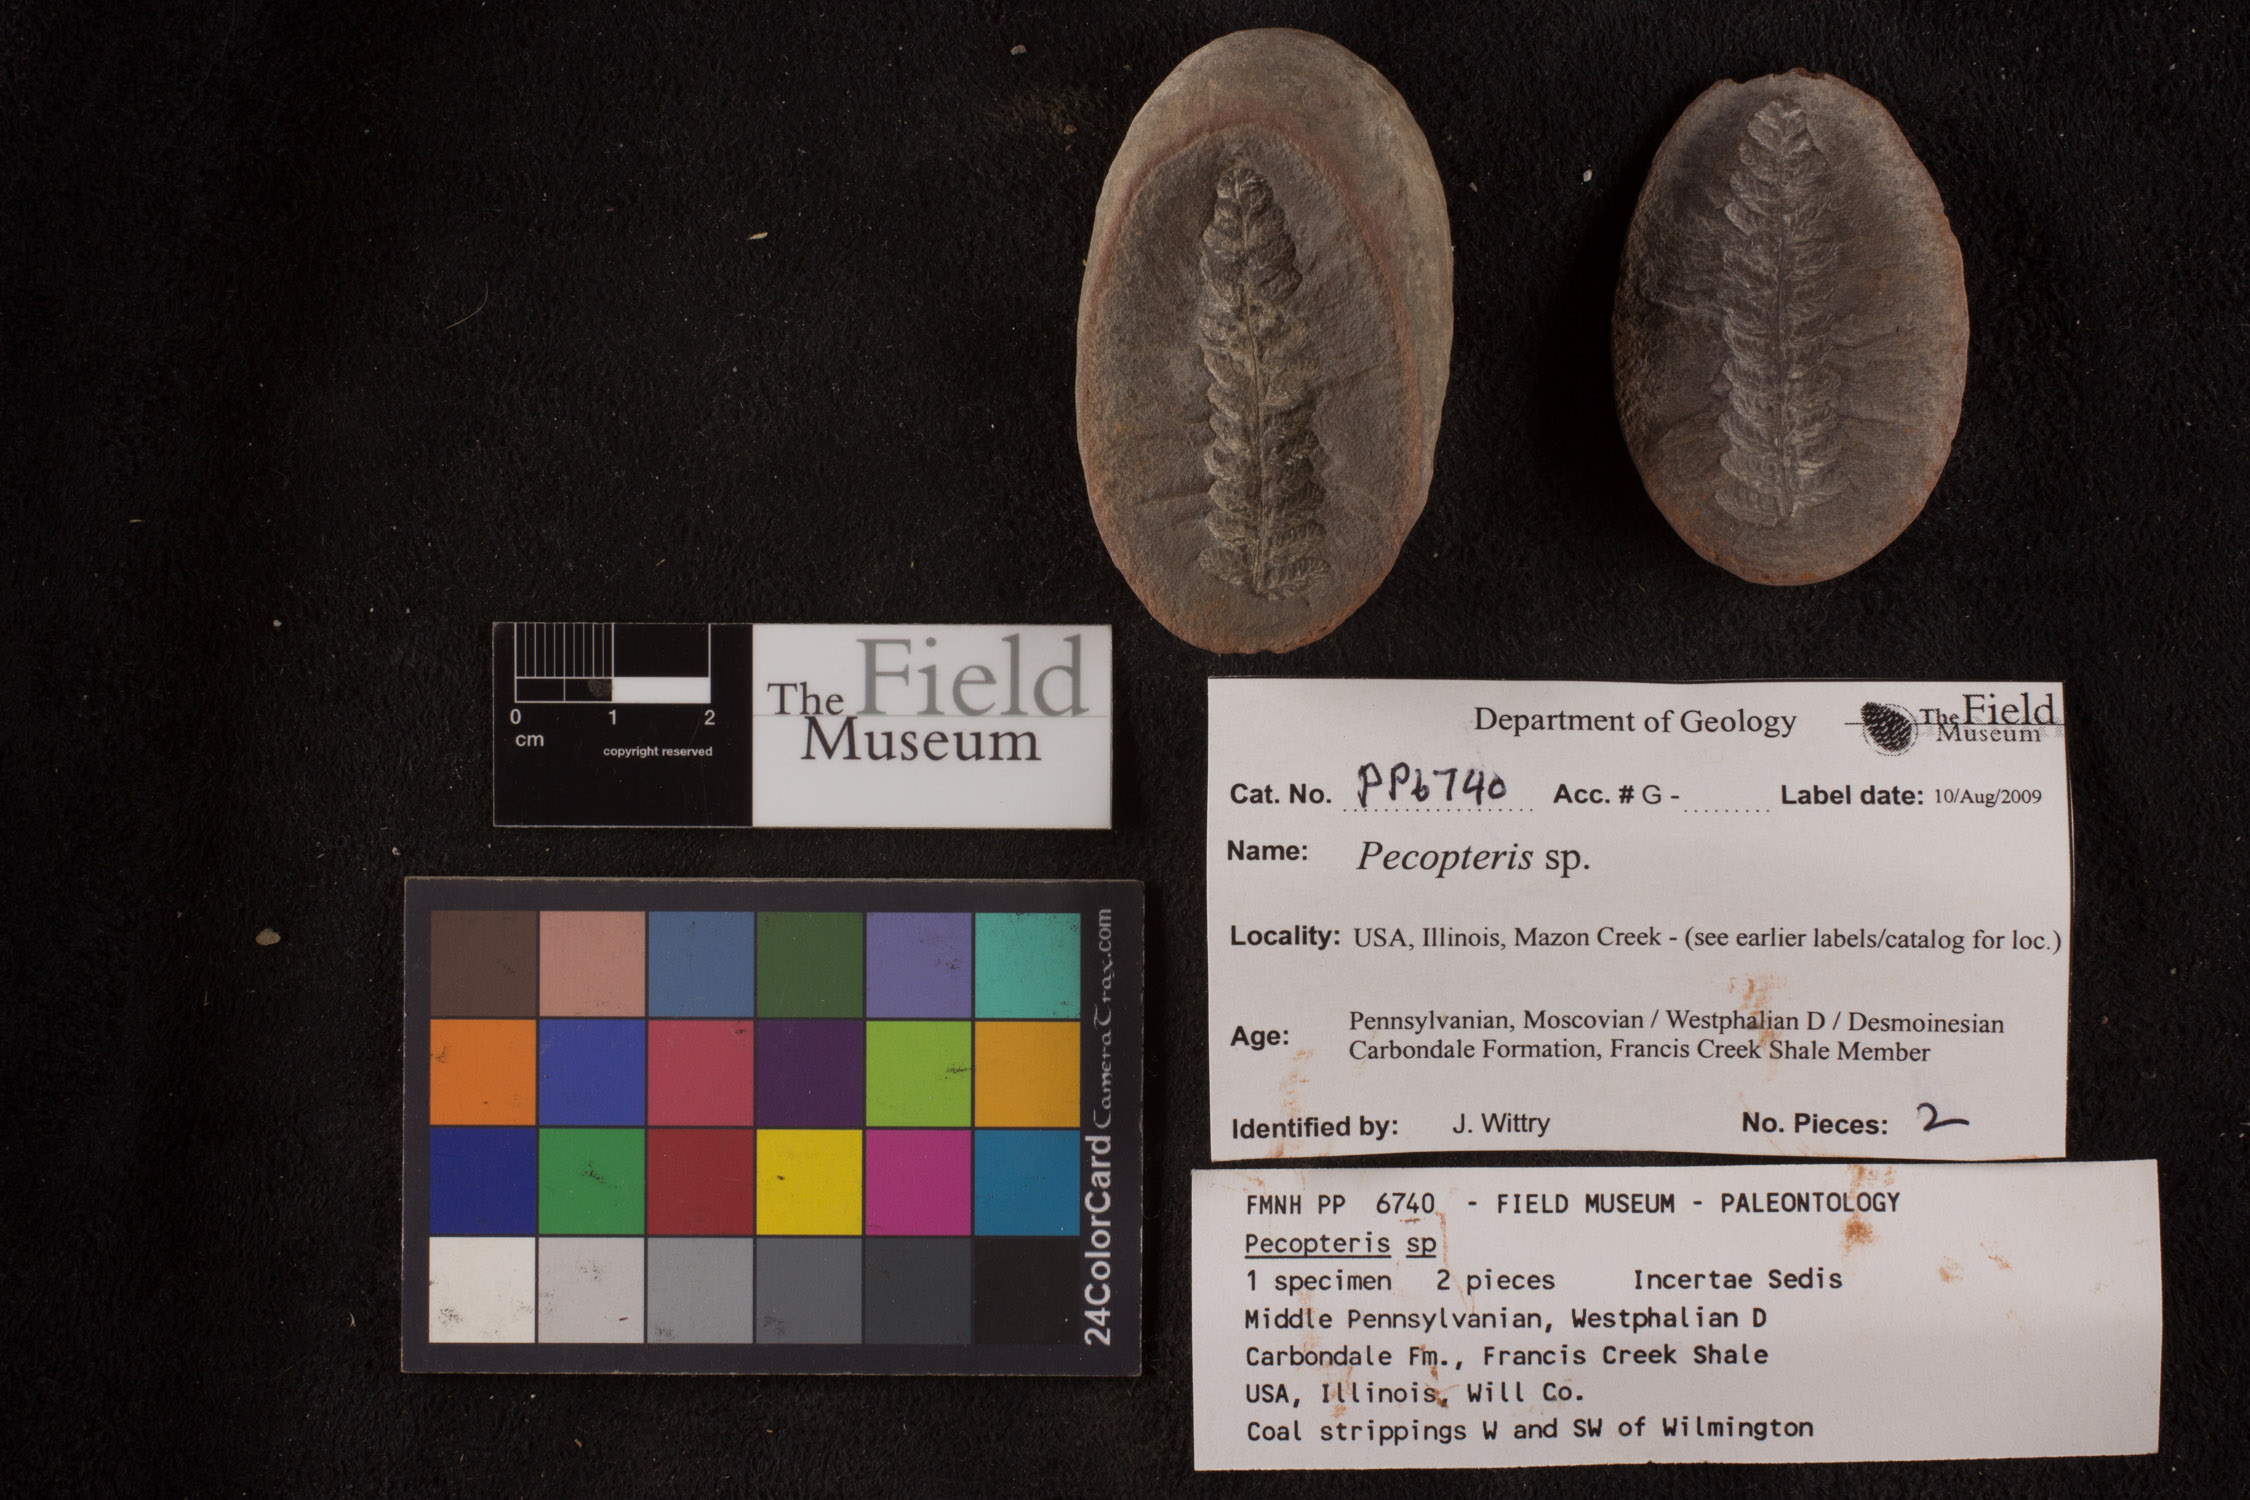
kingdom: Plantae
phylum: Tracheophyta
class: Polypodiopsida
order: Marattiales
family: Asterothecaceae
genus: Pecopteris
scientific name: Pecopteris
